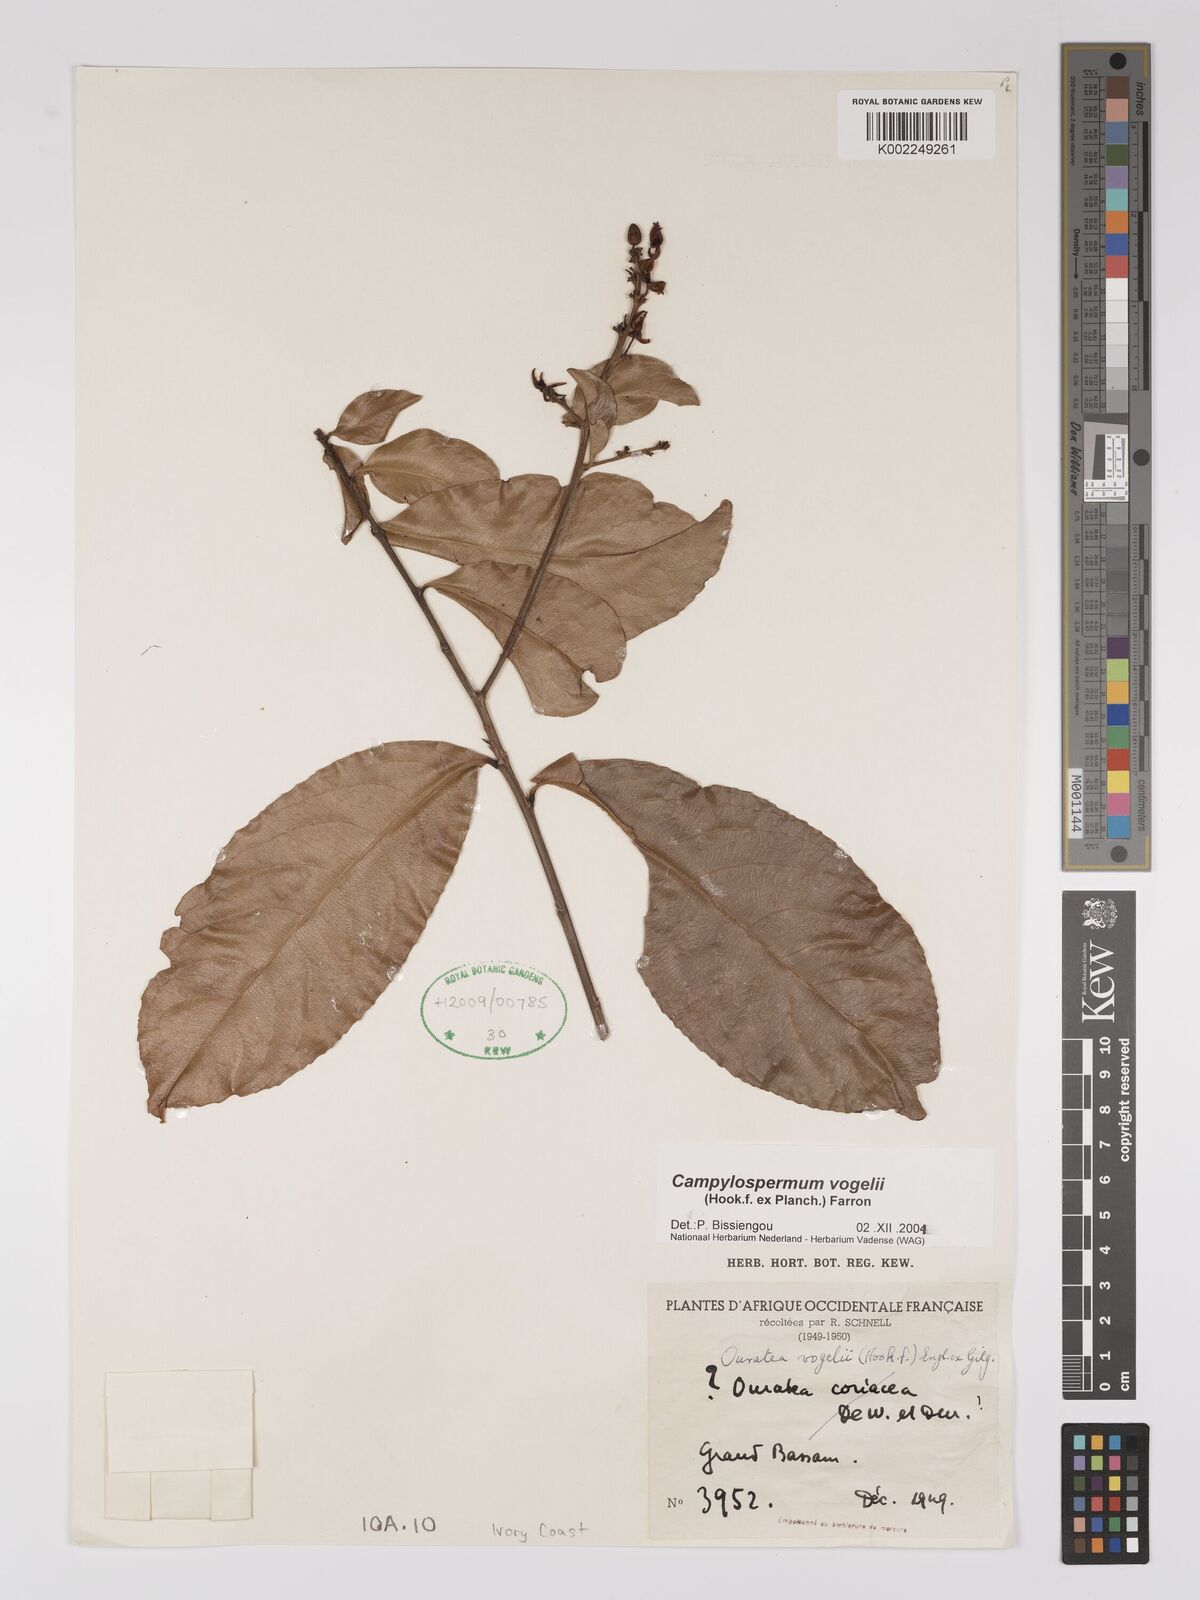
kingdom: Plantae
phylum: Tracheophyta
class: Magnoliopsida
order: Malpighiales
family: Ochnaceae
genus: Campylospermum
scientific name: Campylospermum vogelii
